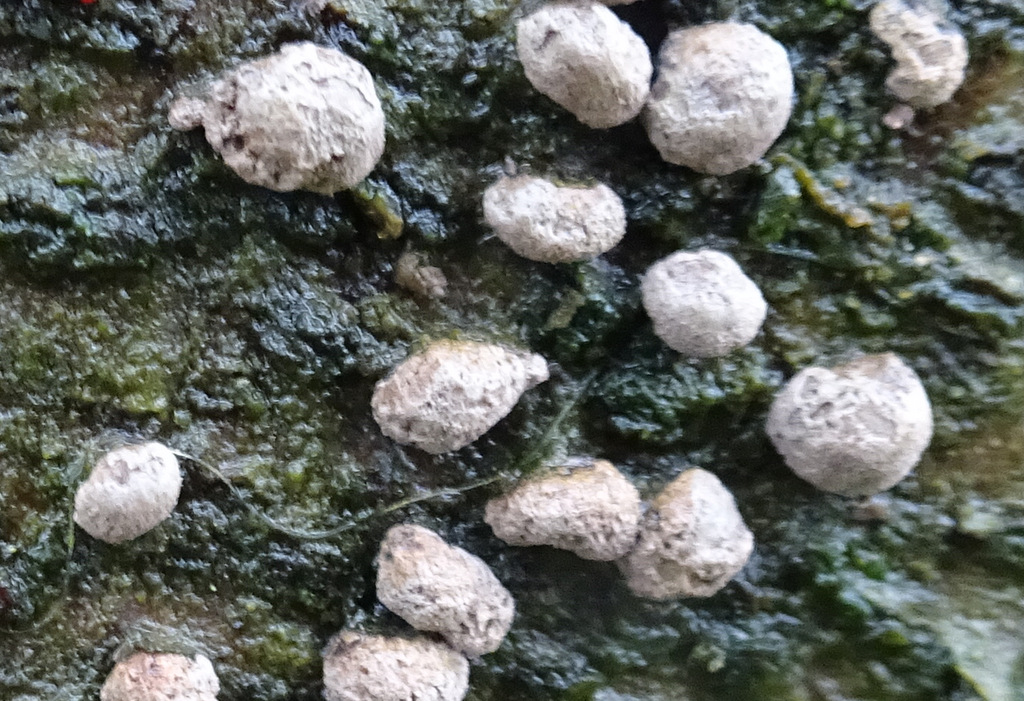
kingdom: Fungi
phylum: Ascomycota
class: Sordariomycetes
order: Xylariales
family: Hypoxylaceae
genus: Hypoxylon
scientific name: Hypoxylon fragiforme
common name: kuljordbær
